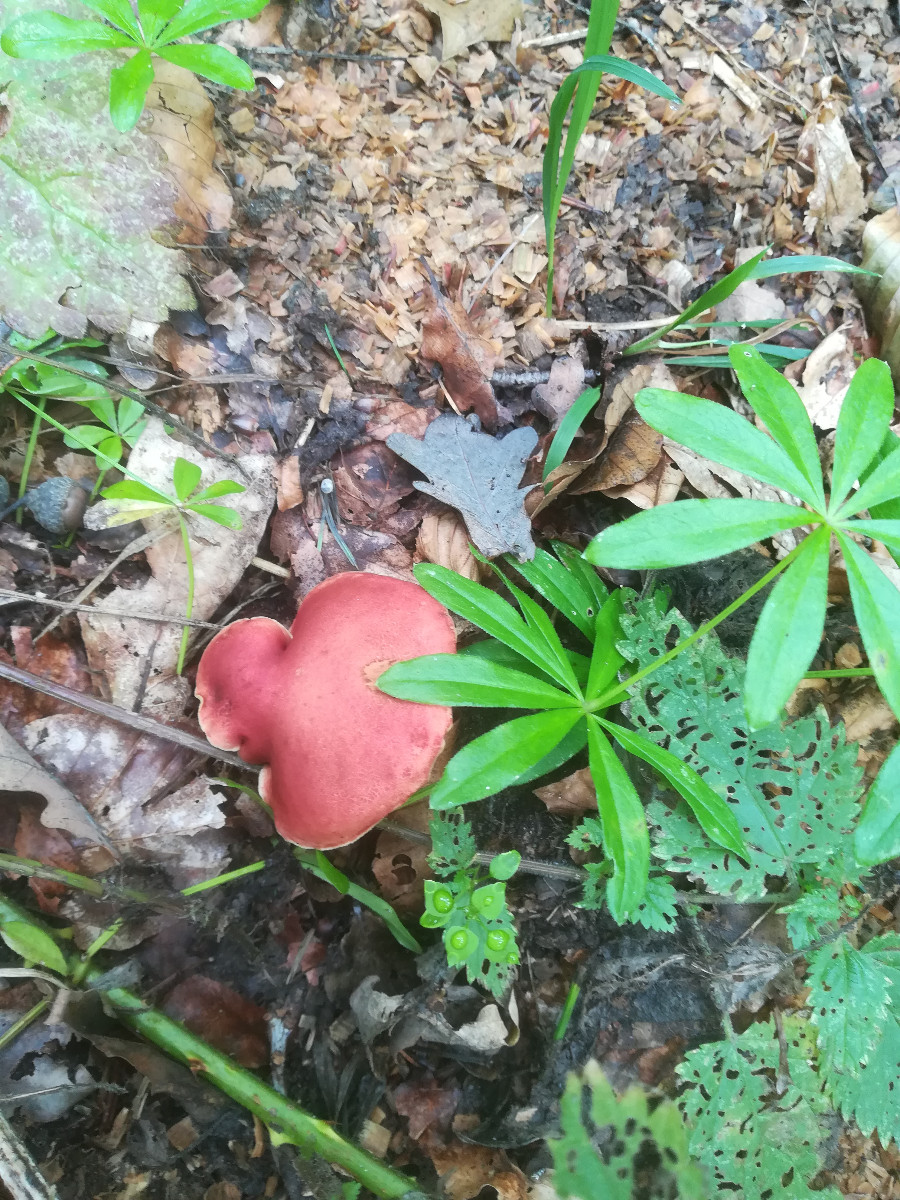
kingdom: Fungi
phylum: Basidiomycota
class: Agaricomycetes
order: Boletales
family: Boletaceae
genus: Hortiboletus
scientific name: Hortiboletus rubellus
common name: blodrød rørhat
